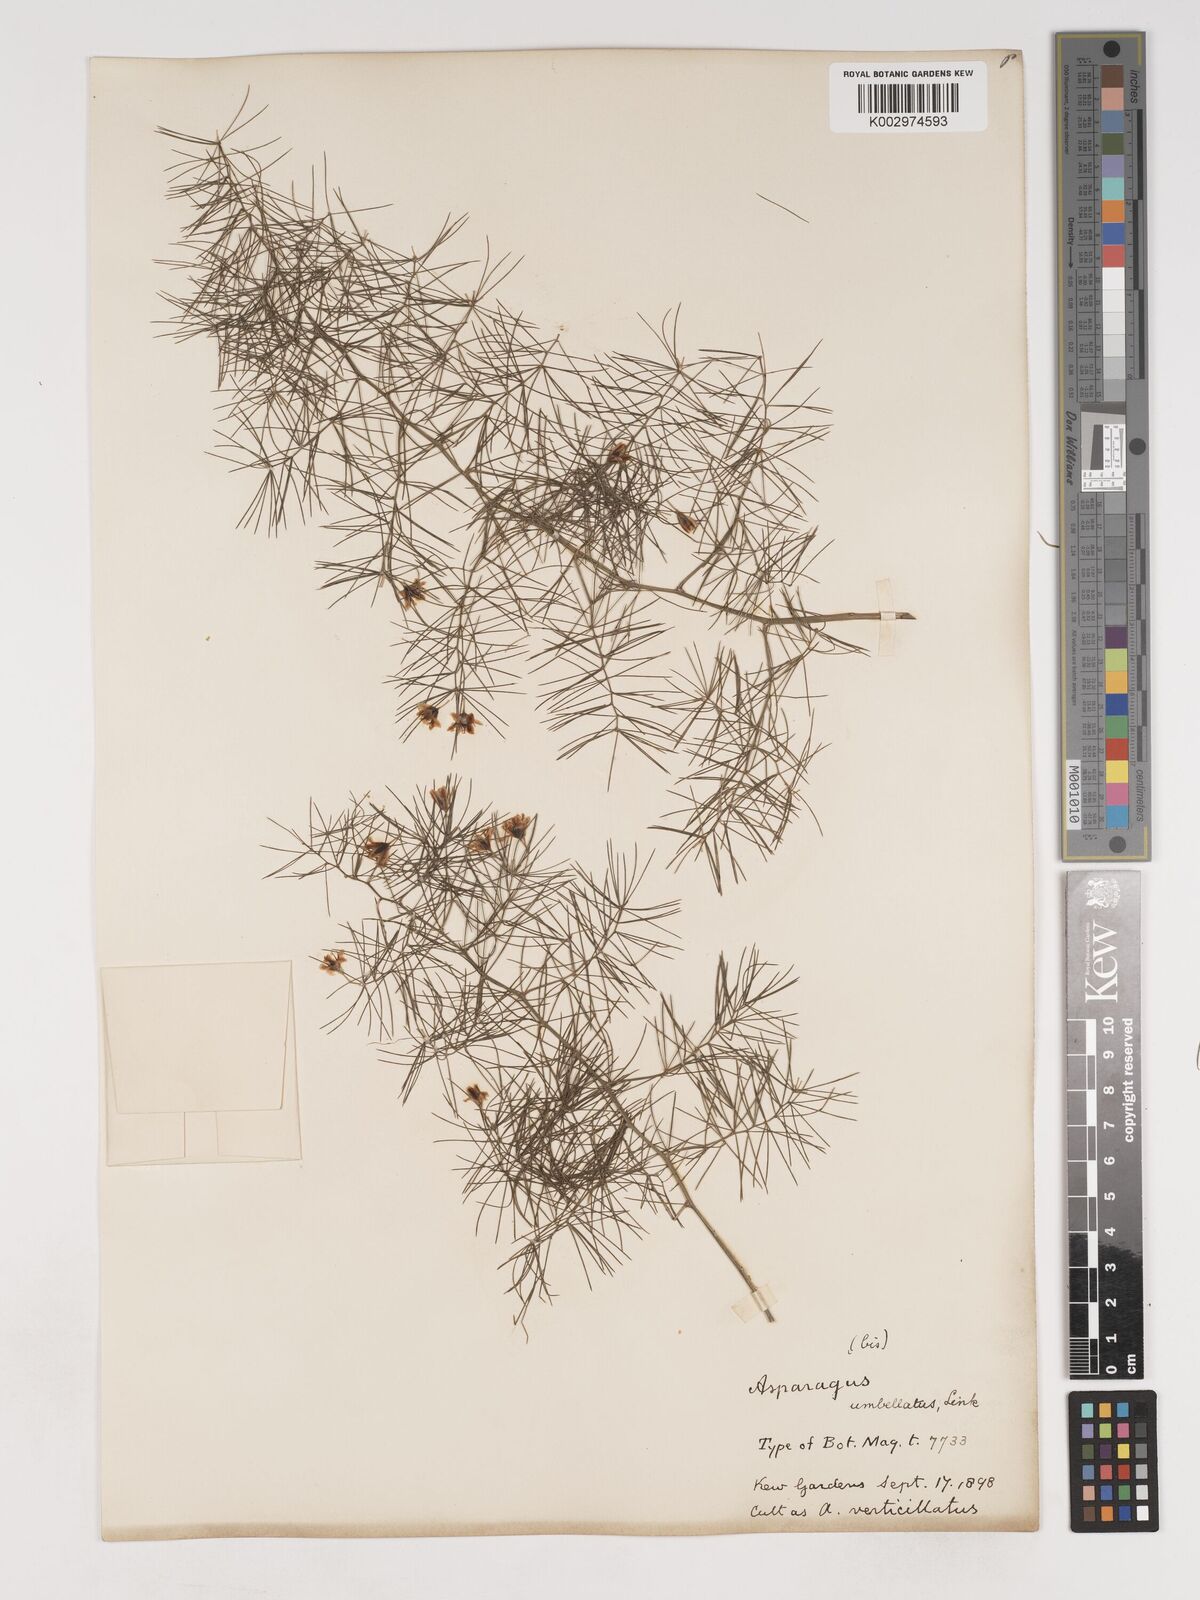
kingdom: Plantae
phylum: Tracheophyta
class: Liliopsida
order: Asparagales
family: Asparagaceae
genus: Asparagus
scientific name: Asparagus umbellatus
